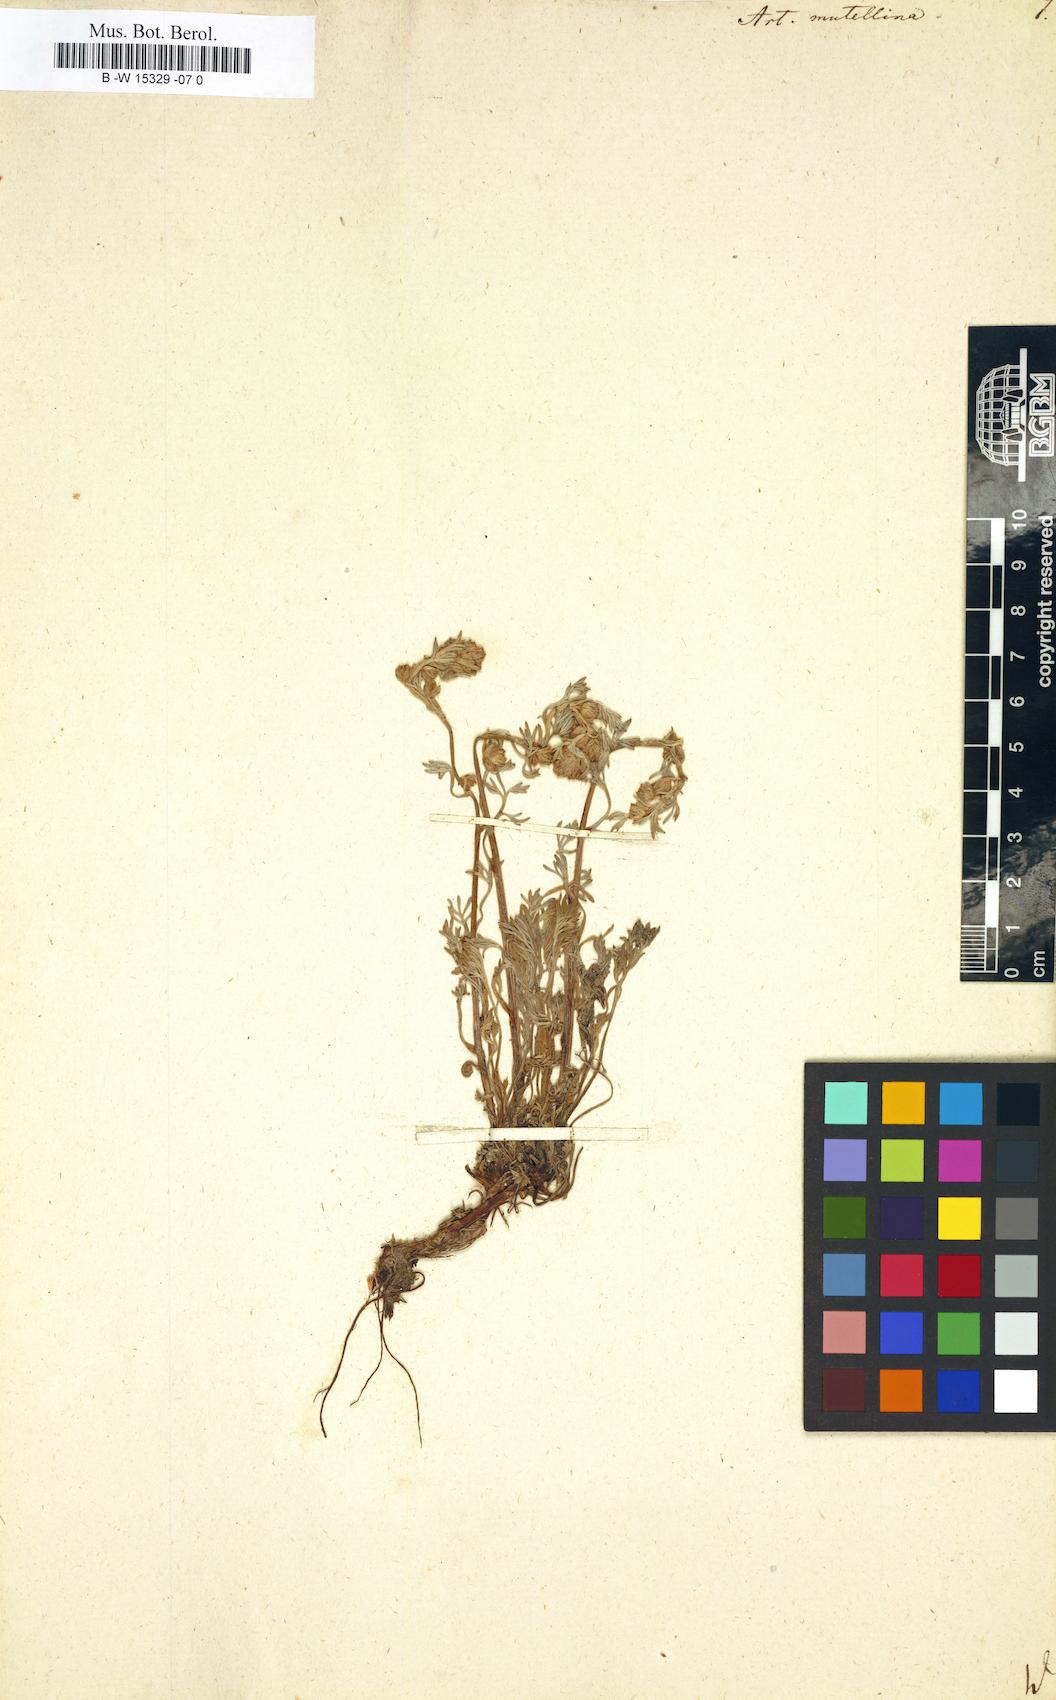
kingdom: Plantae
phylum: Tracheophyta
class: Magnoliopsida
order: Asterales
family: Asteraceae
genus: Artemisia
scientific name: Artemisia mutellina
